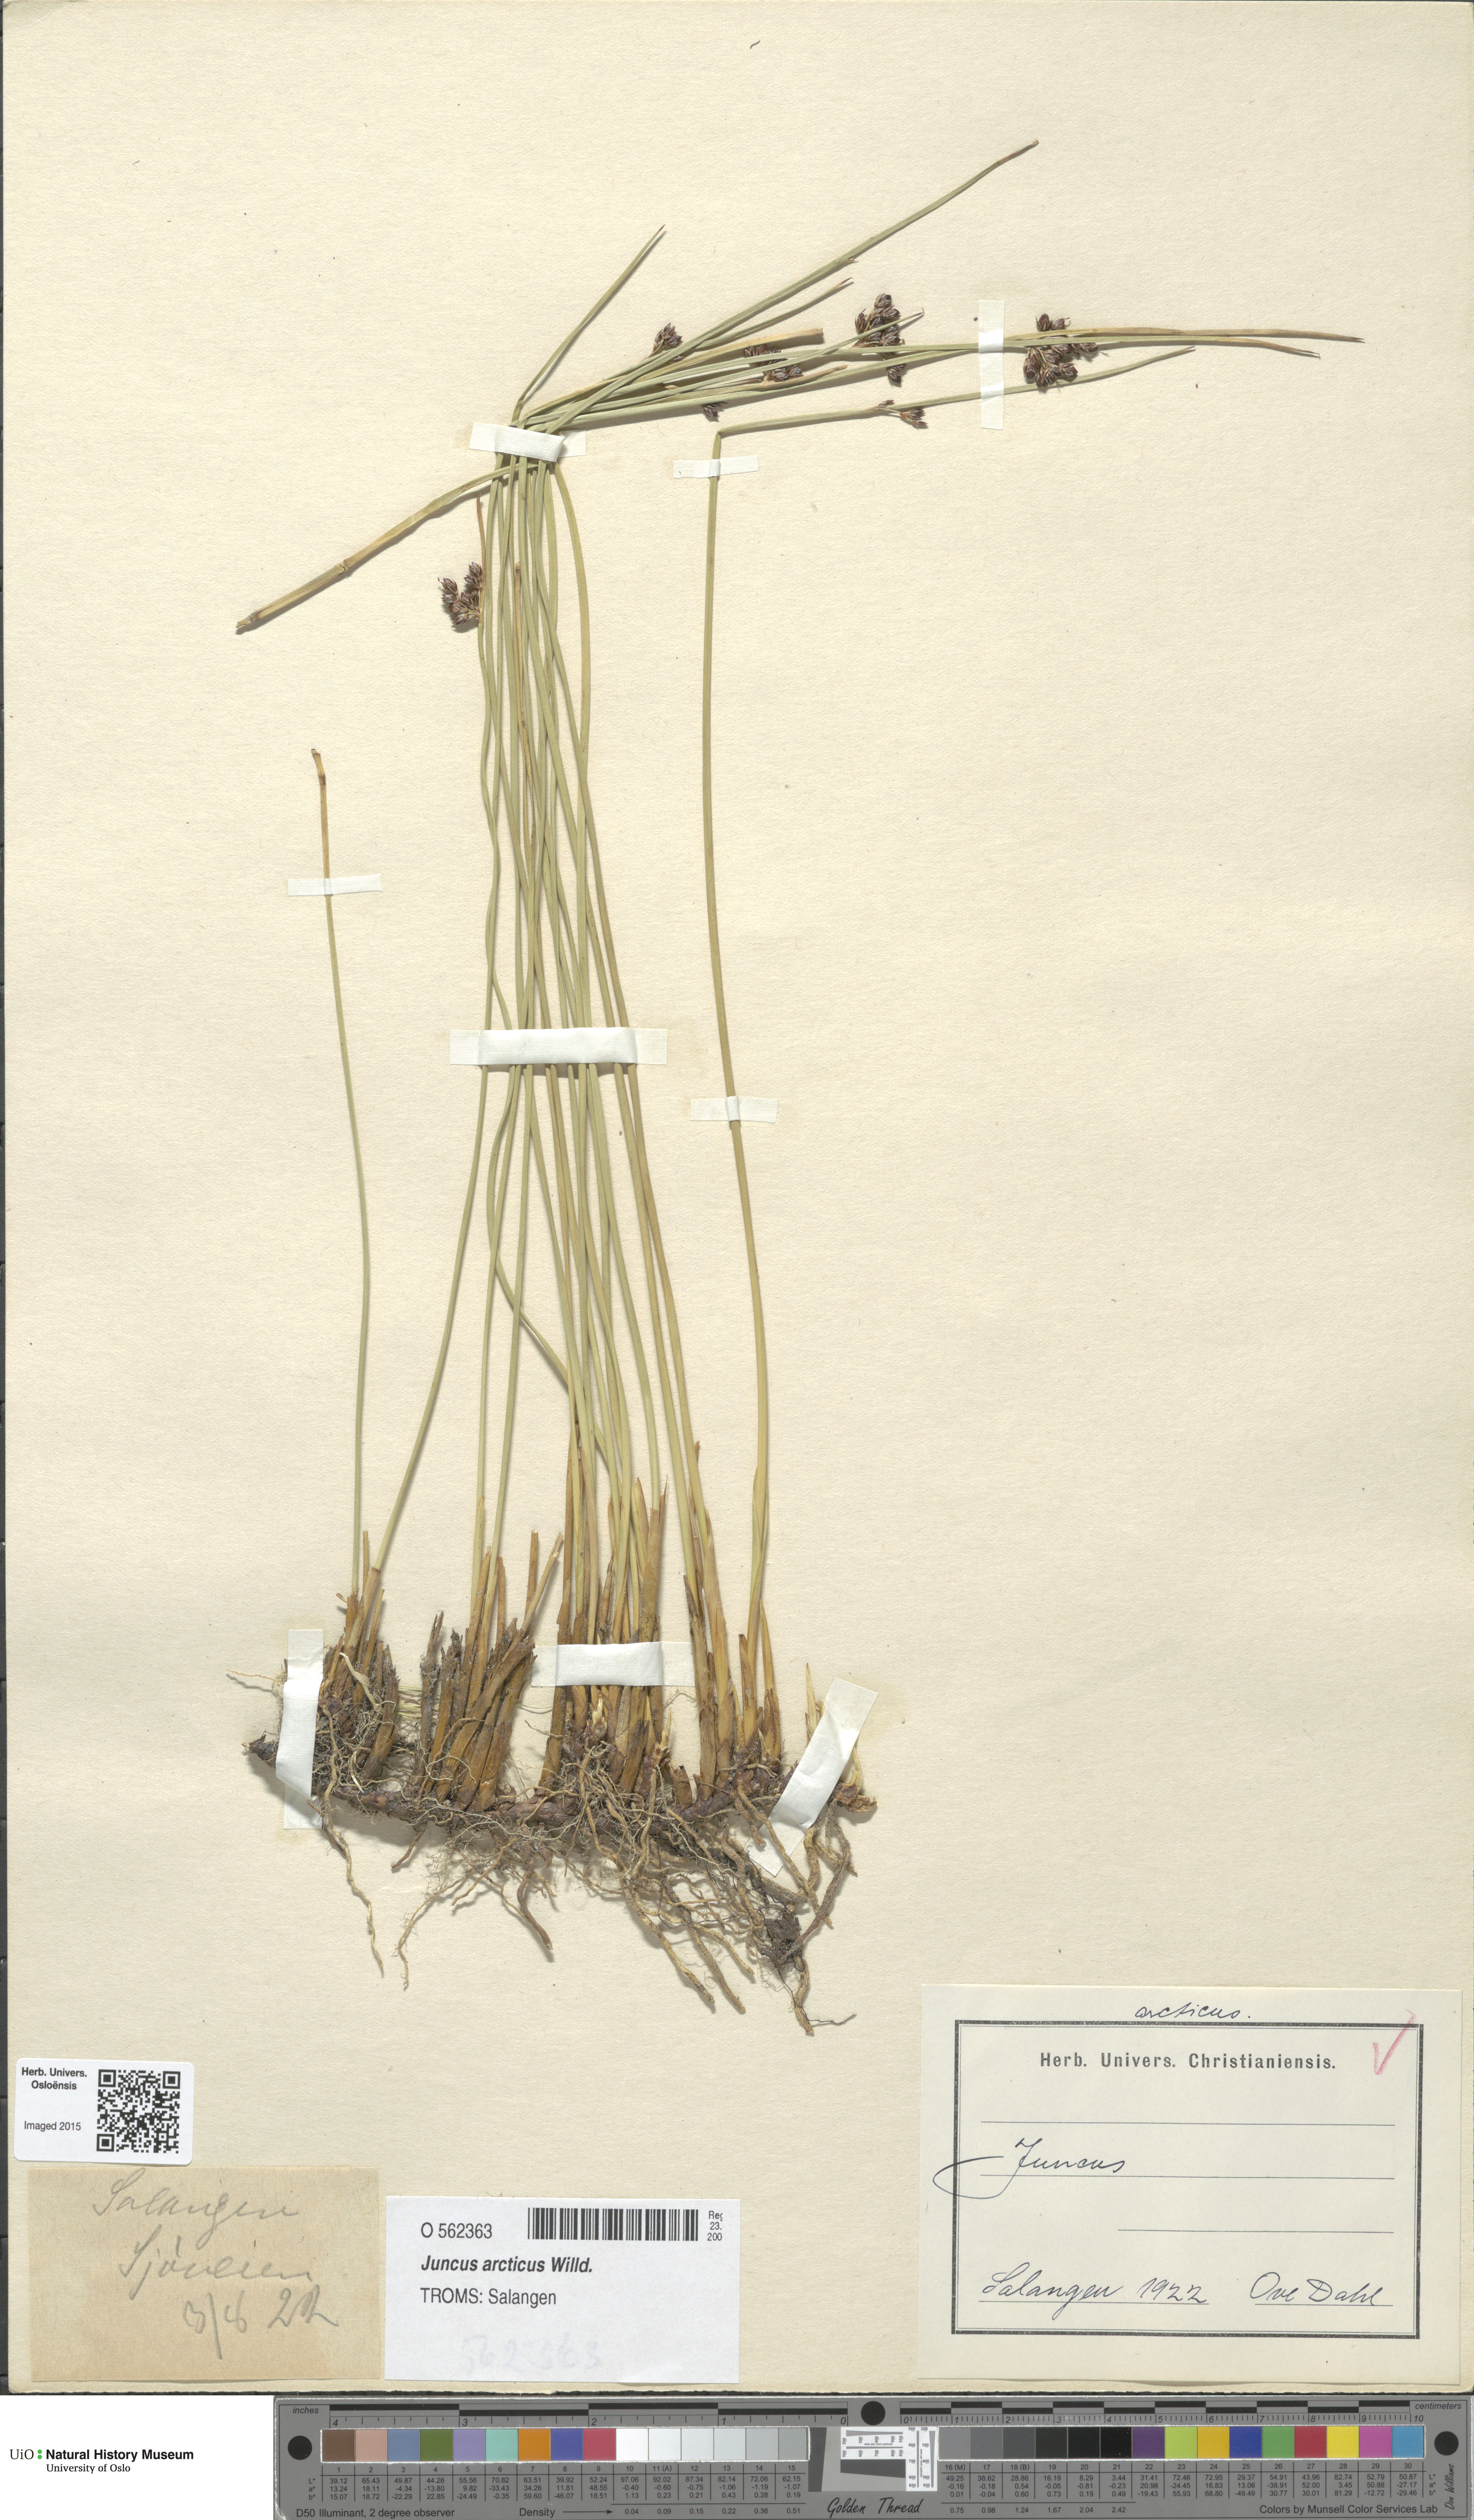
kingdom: Plantae
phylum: Tracheophyta
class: Liliopsida
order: Poales
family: Juncaceae
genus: Juncus
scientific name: Juncus arcticus
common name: Arctic rush
